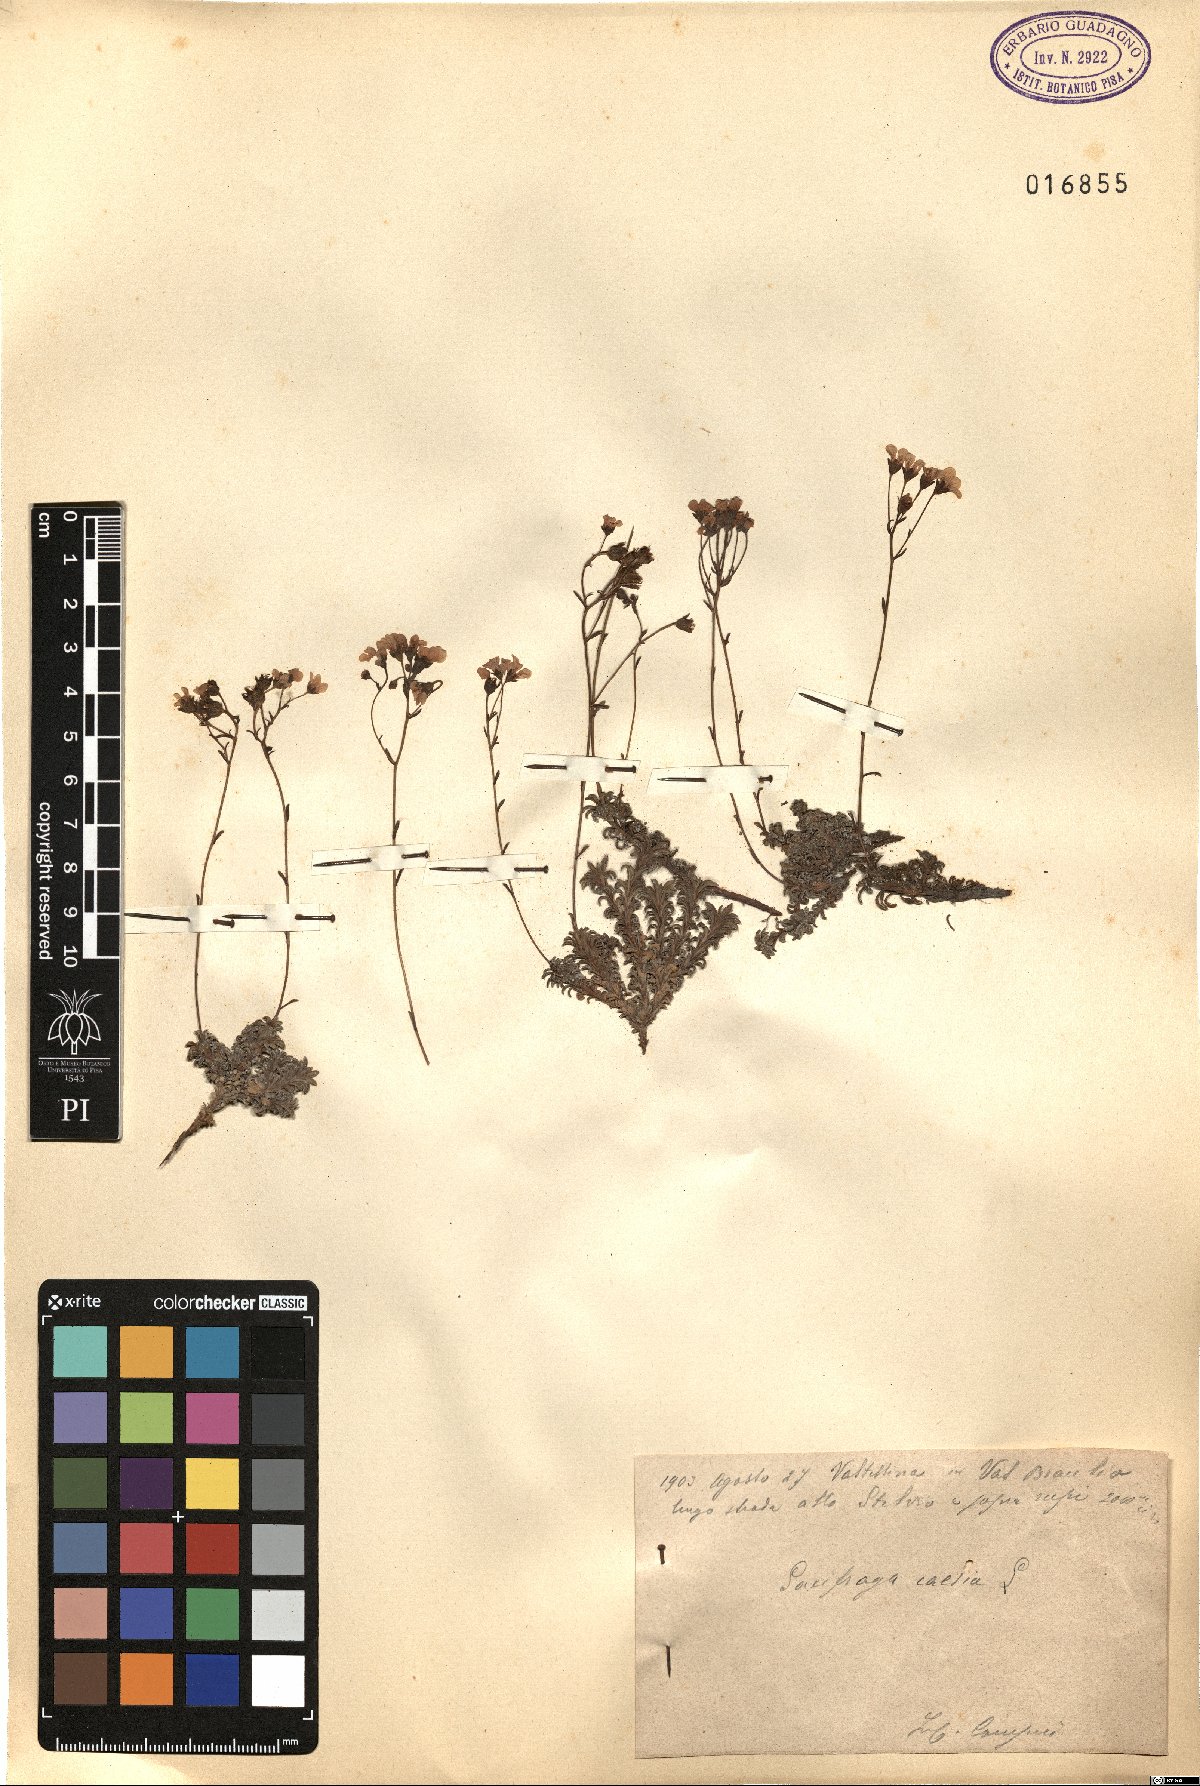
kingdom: Plantae
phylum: Tracheophyta
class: Magnoliopsida
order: Saxifragales
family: Saxifragaceae
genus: Saxifraga
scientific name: Saxifraga caesia
